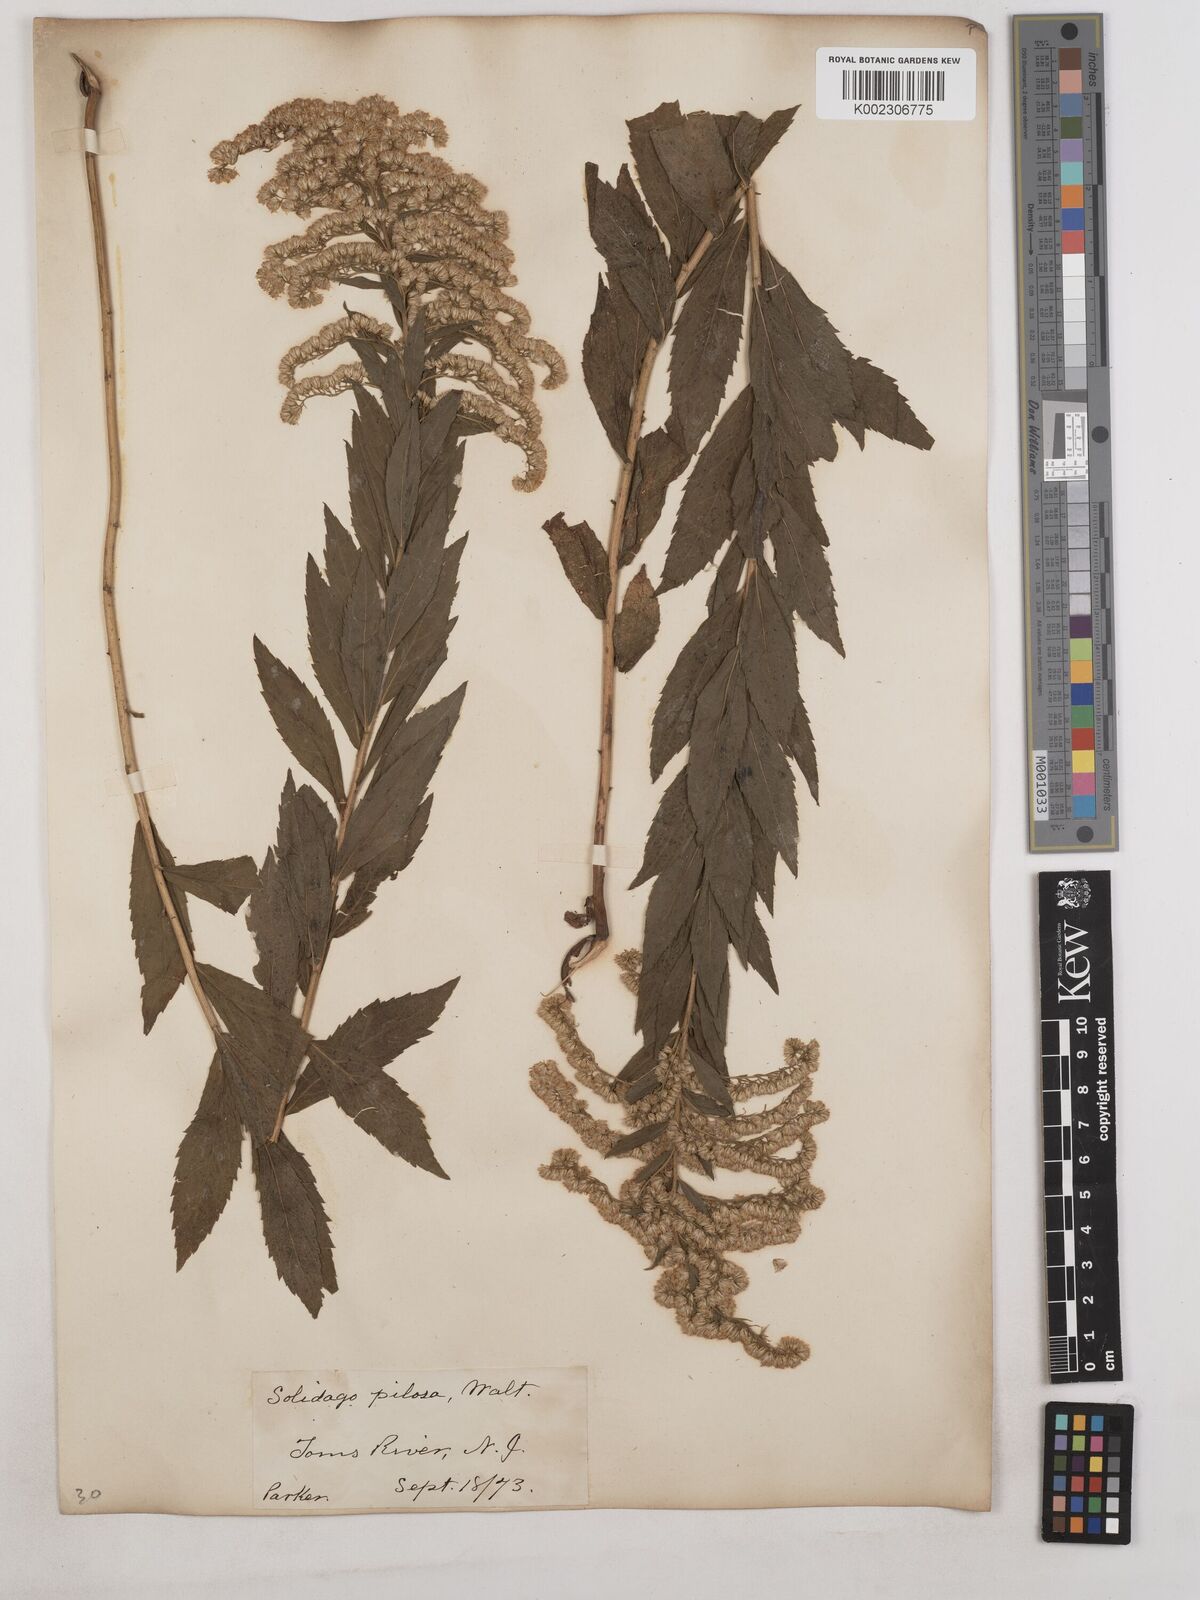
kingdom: Plantae
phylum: Tracheophyta
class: Magnoliopsida
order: Asterales
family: Asteraceae
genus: Solidago
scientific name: Solidago fistulosa
